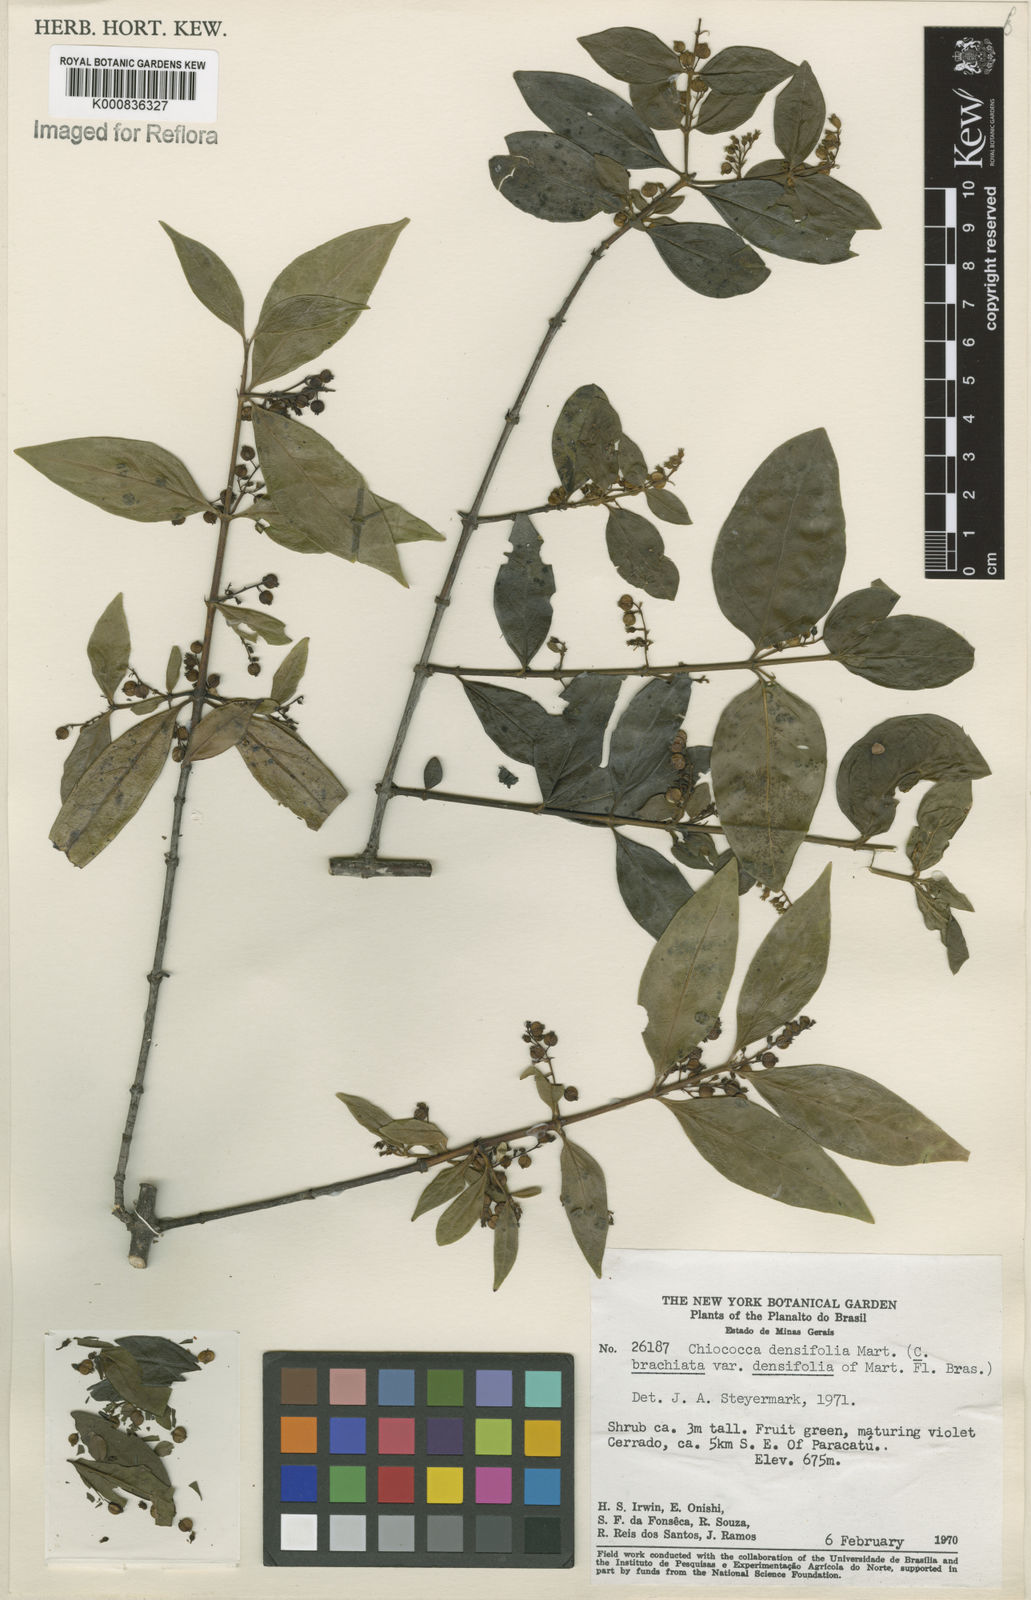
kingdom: Plantae
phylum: Tracheophyta
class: Magnoliopsida
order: Gentianales
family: Rubiaceae
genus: Chiococca
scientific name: Chiococca alba
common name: Snowberry
